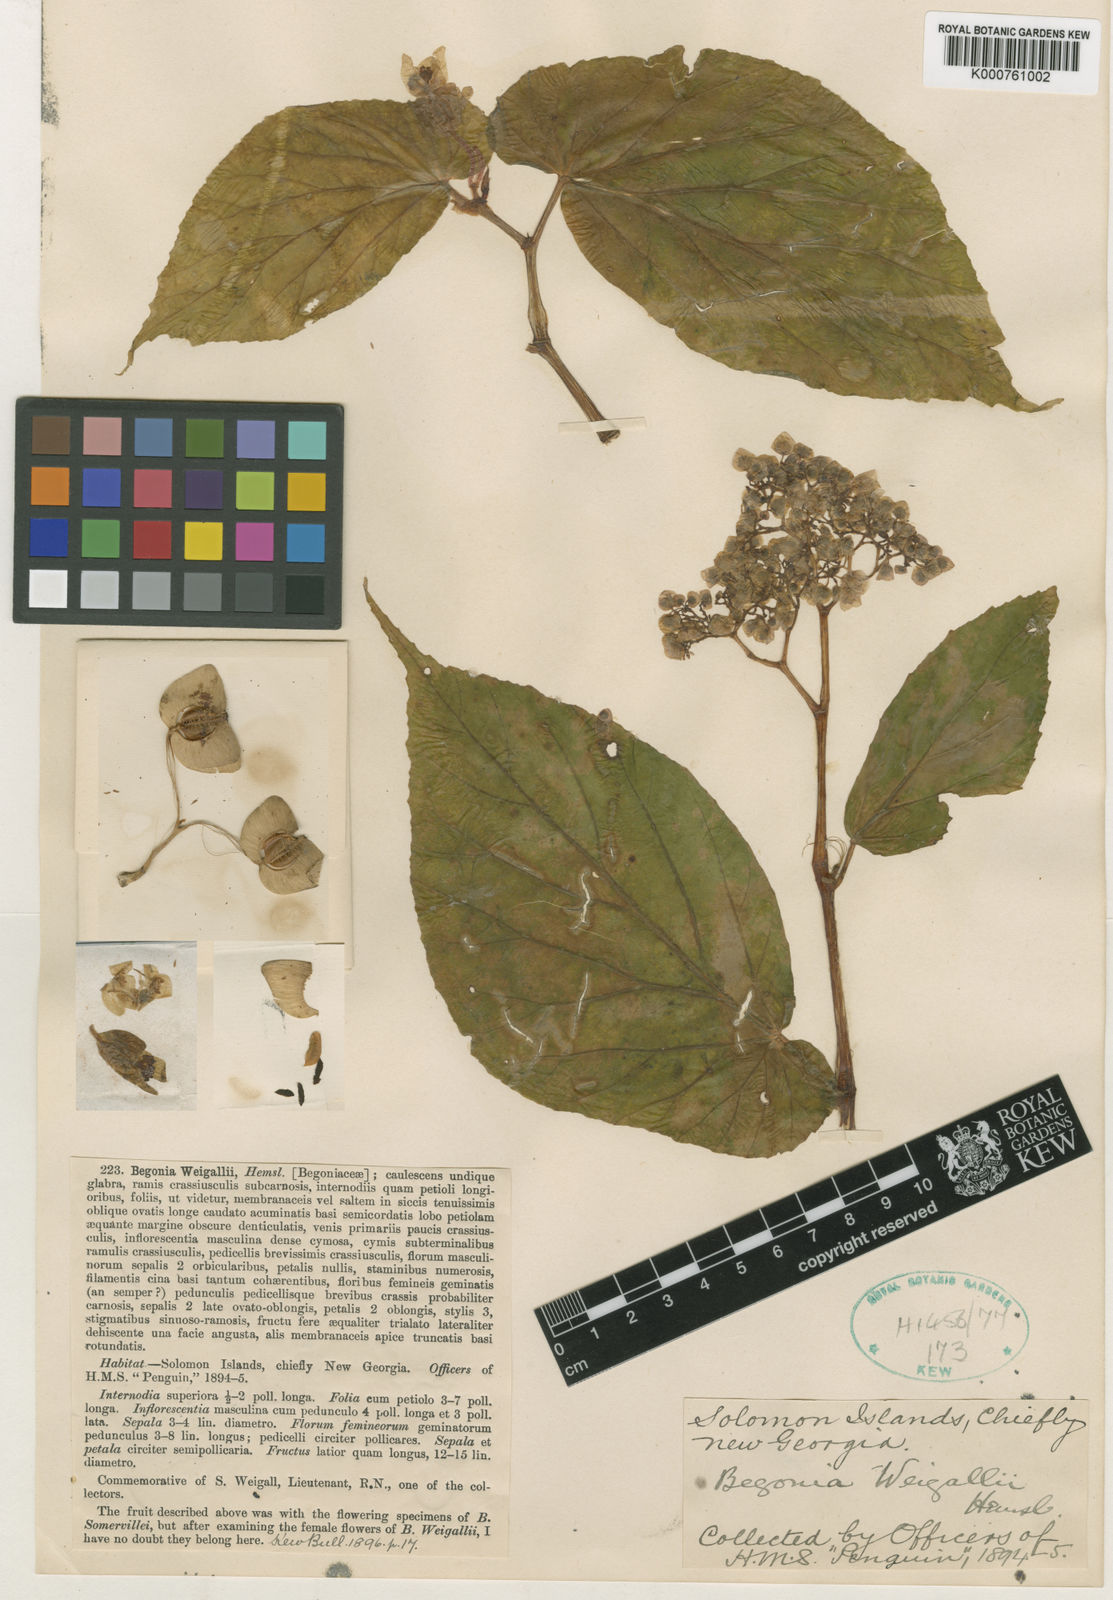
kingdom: Plantae
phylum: Tracheophyta
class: Magnoliopsida
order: Cucurbitales
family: Begoniaceae
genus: Begonia
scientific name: Begonia weigallii
